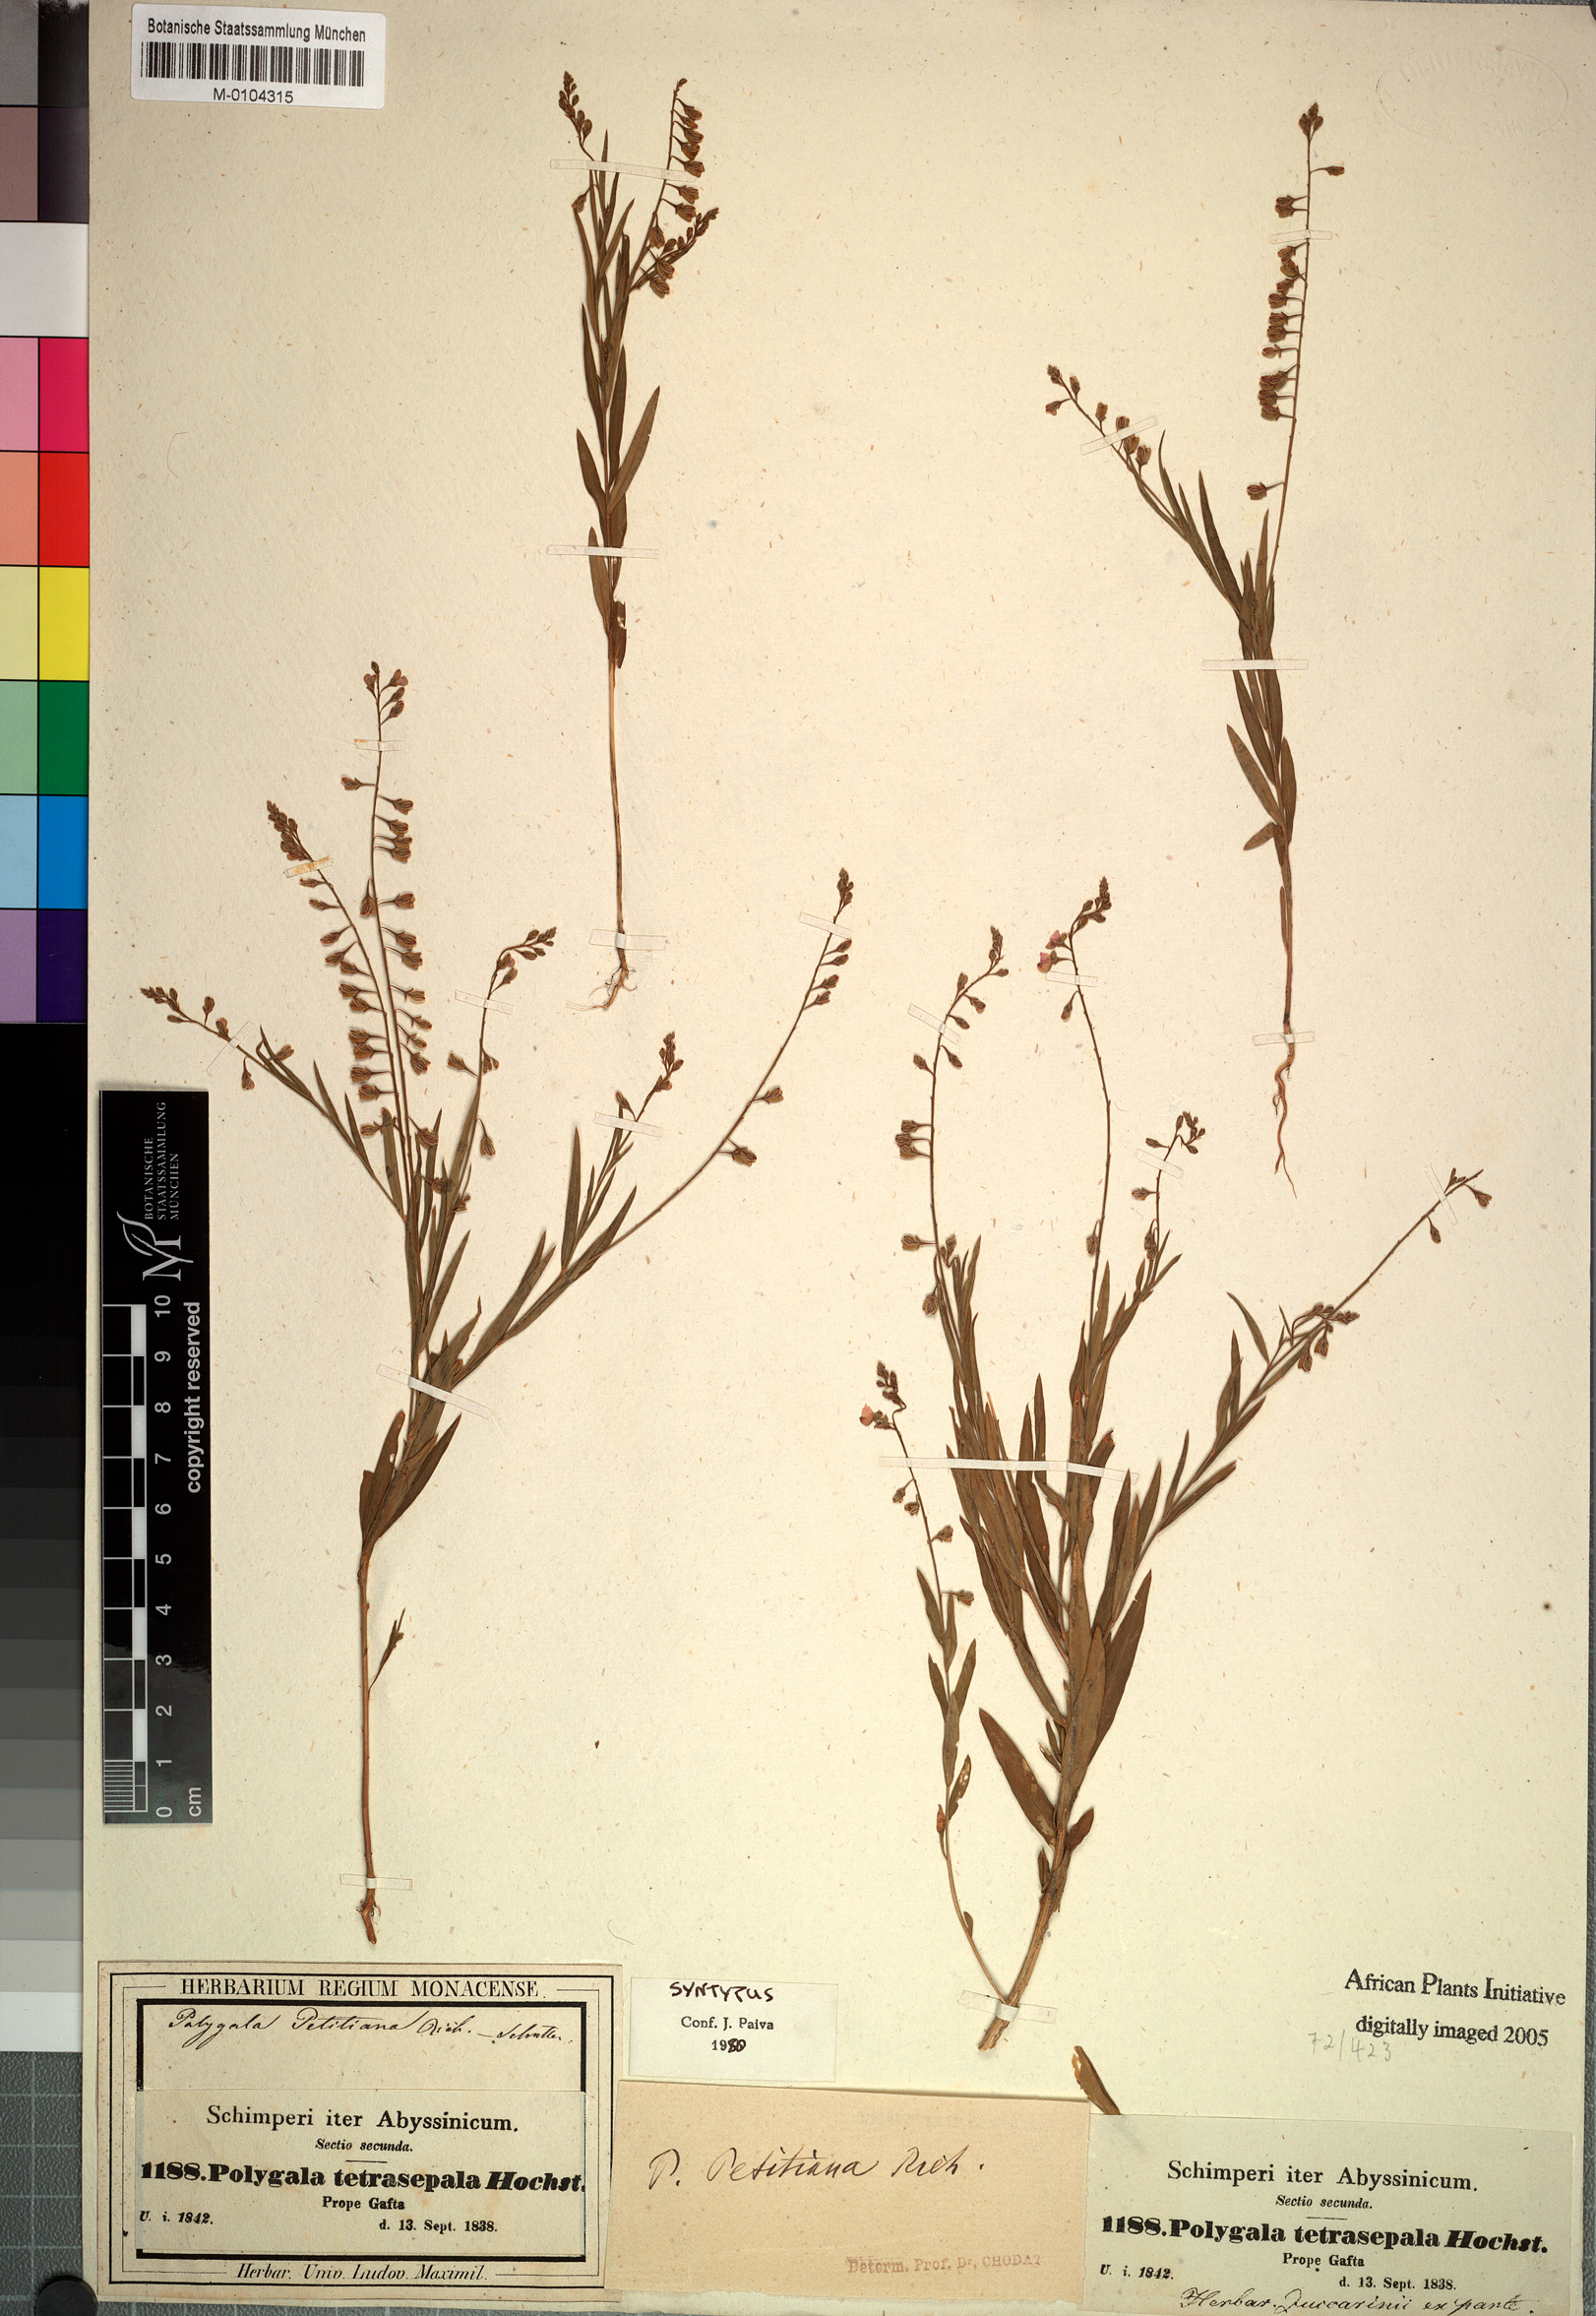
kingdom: Plantae
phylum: Tracheophyta
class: Magnoliopsida
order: Fabales
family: Polygalaceae
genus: Polygala
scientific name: Polygala petitiana
